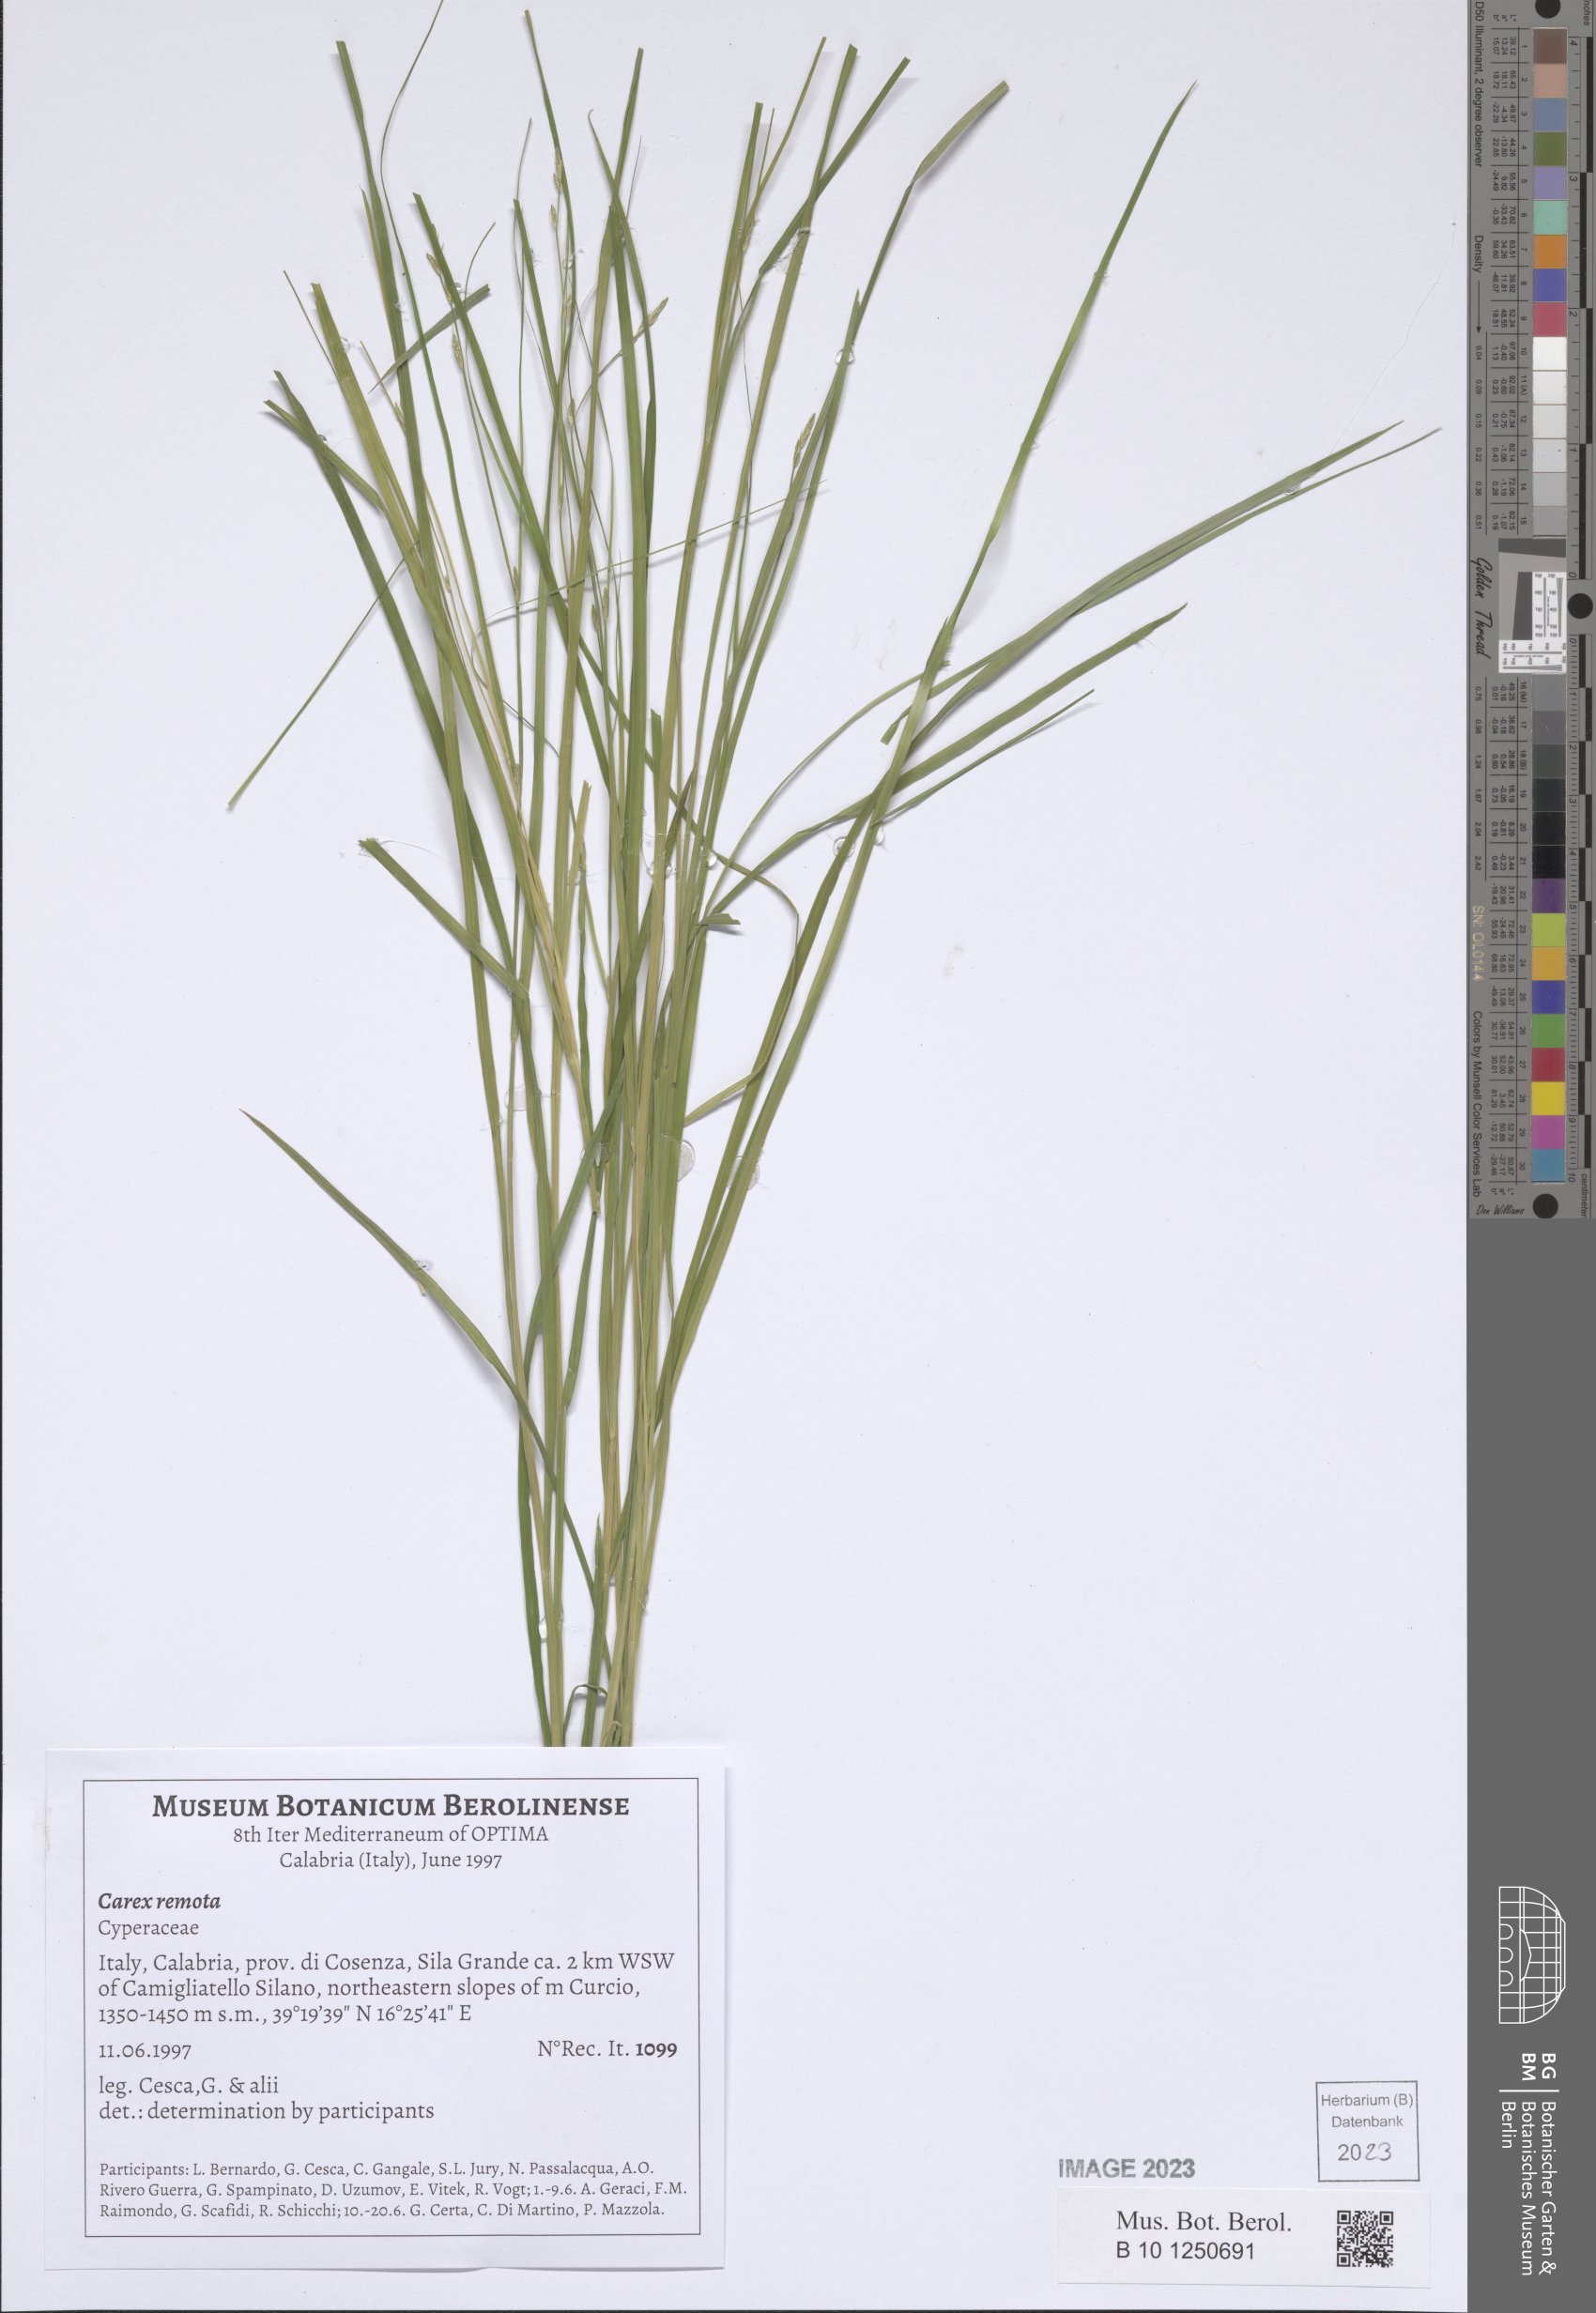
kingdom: Plantae
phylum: Tracheophyta
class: Liliopsida
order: Poales
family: Cyperaceae
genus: Carex
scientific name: Carex remota
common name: Remote sedge
